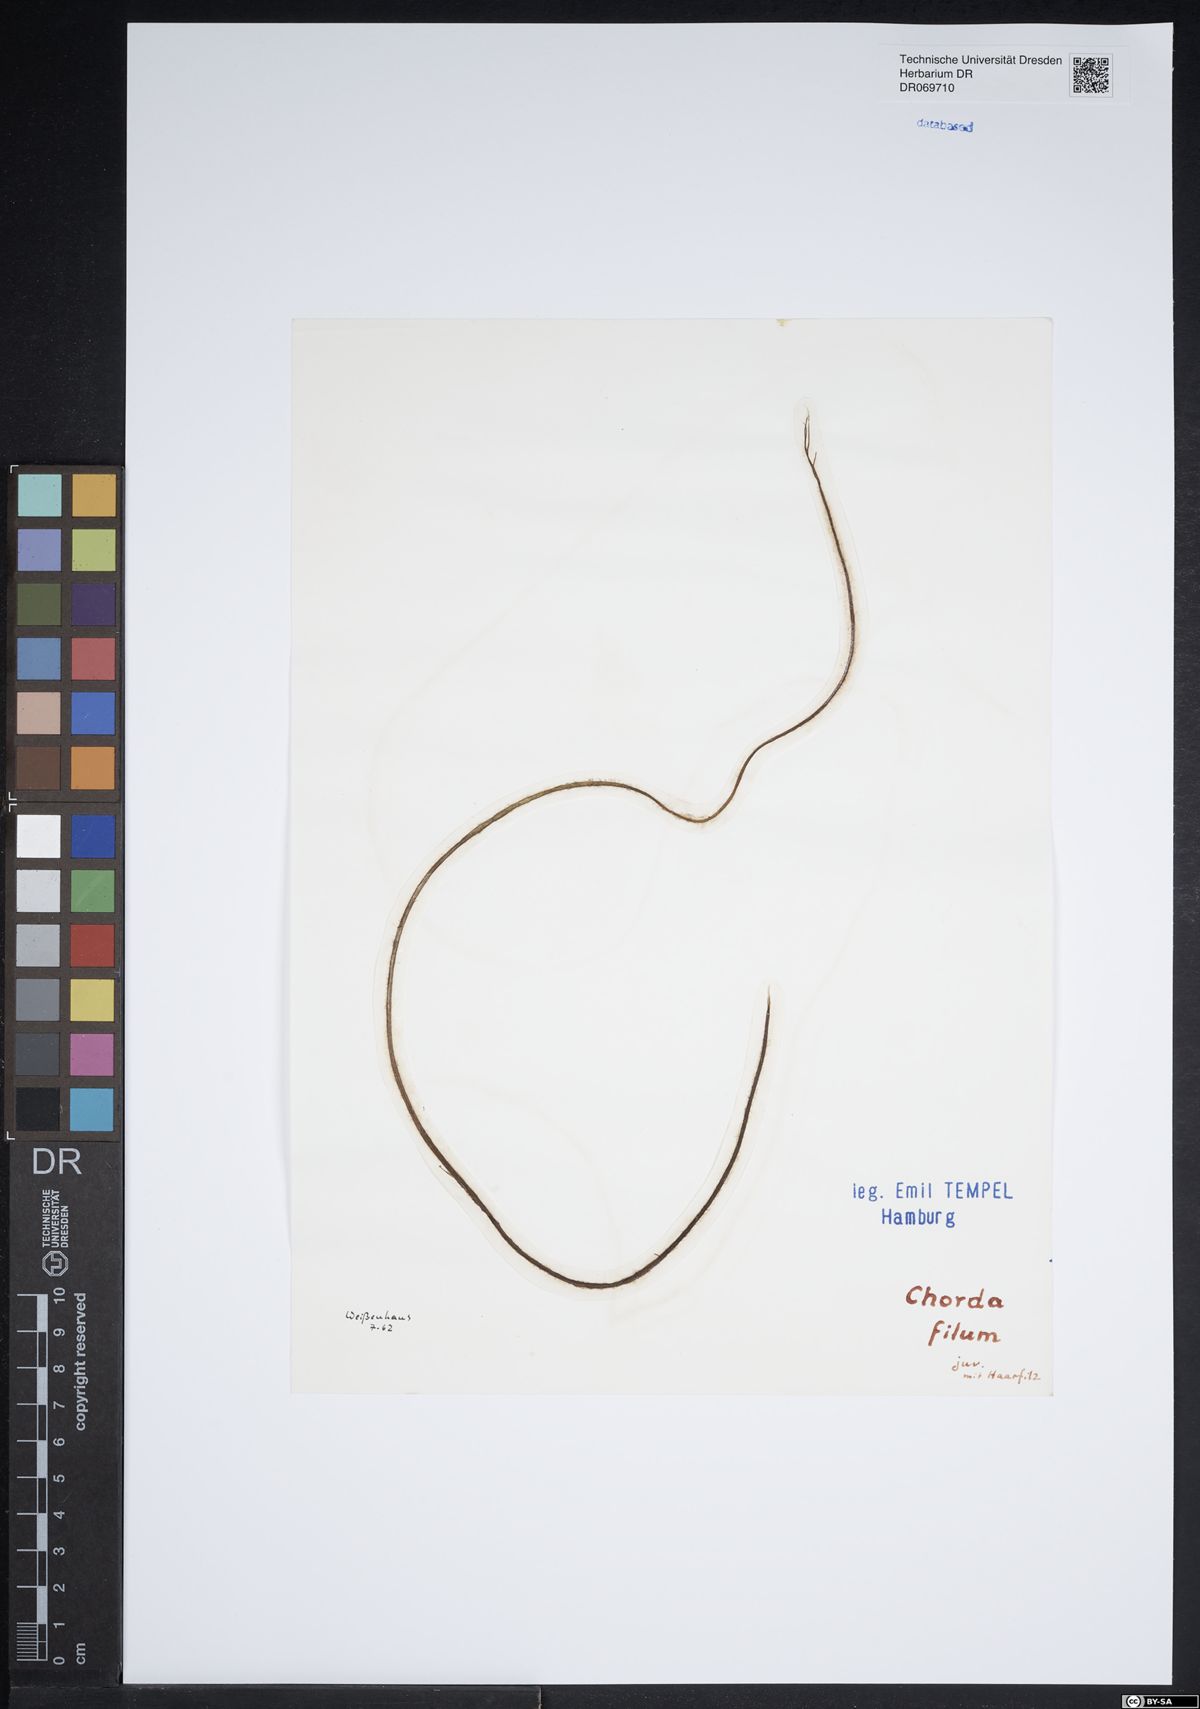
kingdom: Chromista
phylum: Ochrophyta
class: Phaeophyceae
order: Laminariales
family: Chordaceae
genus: Chorda
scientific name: Chorda filum
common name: Mermaid's tresses
